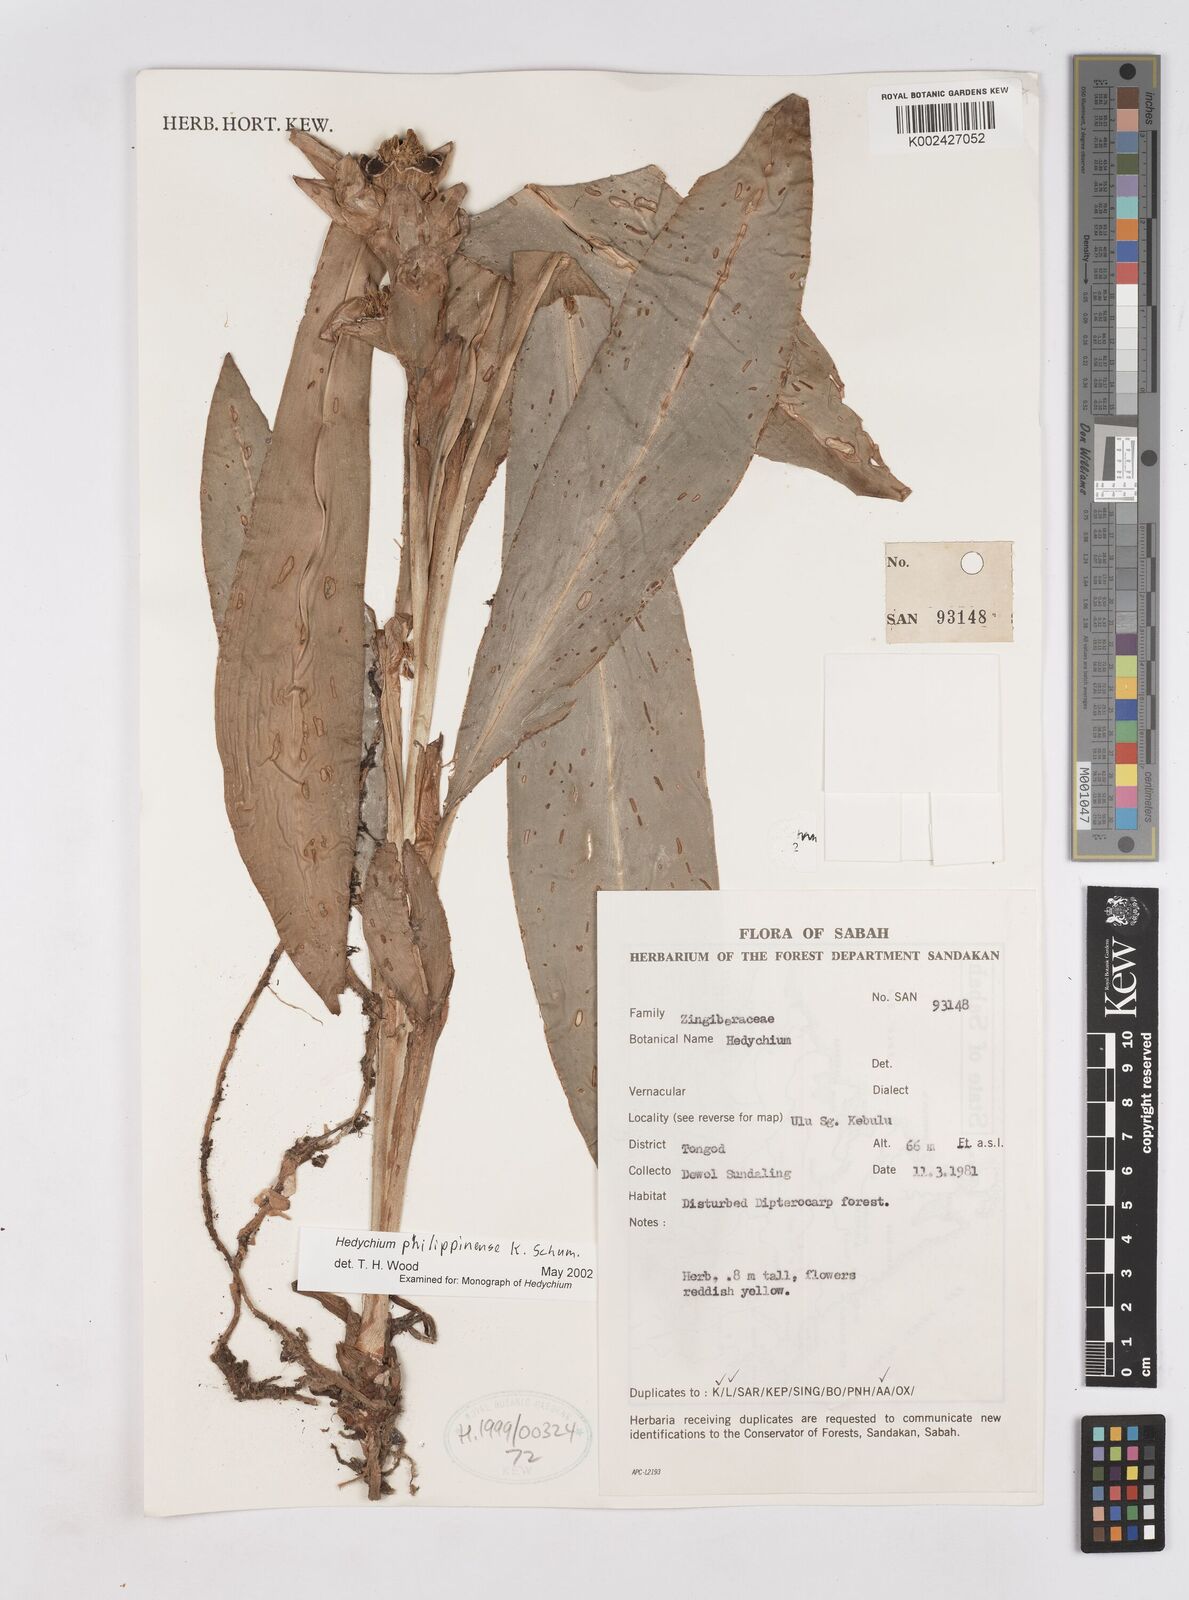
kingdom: Plantae
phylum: Tracheophyta
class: Liliopsida
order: Zingiberales
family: Zingiberaceae
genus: Hedychium
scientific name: Hedychium philippinense
